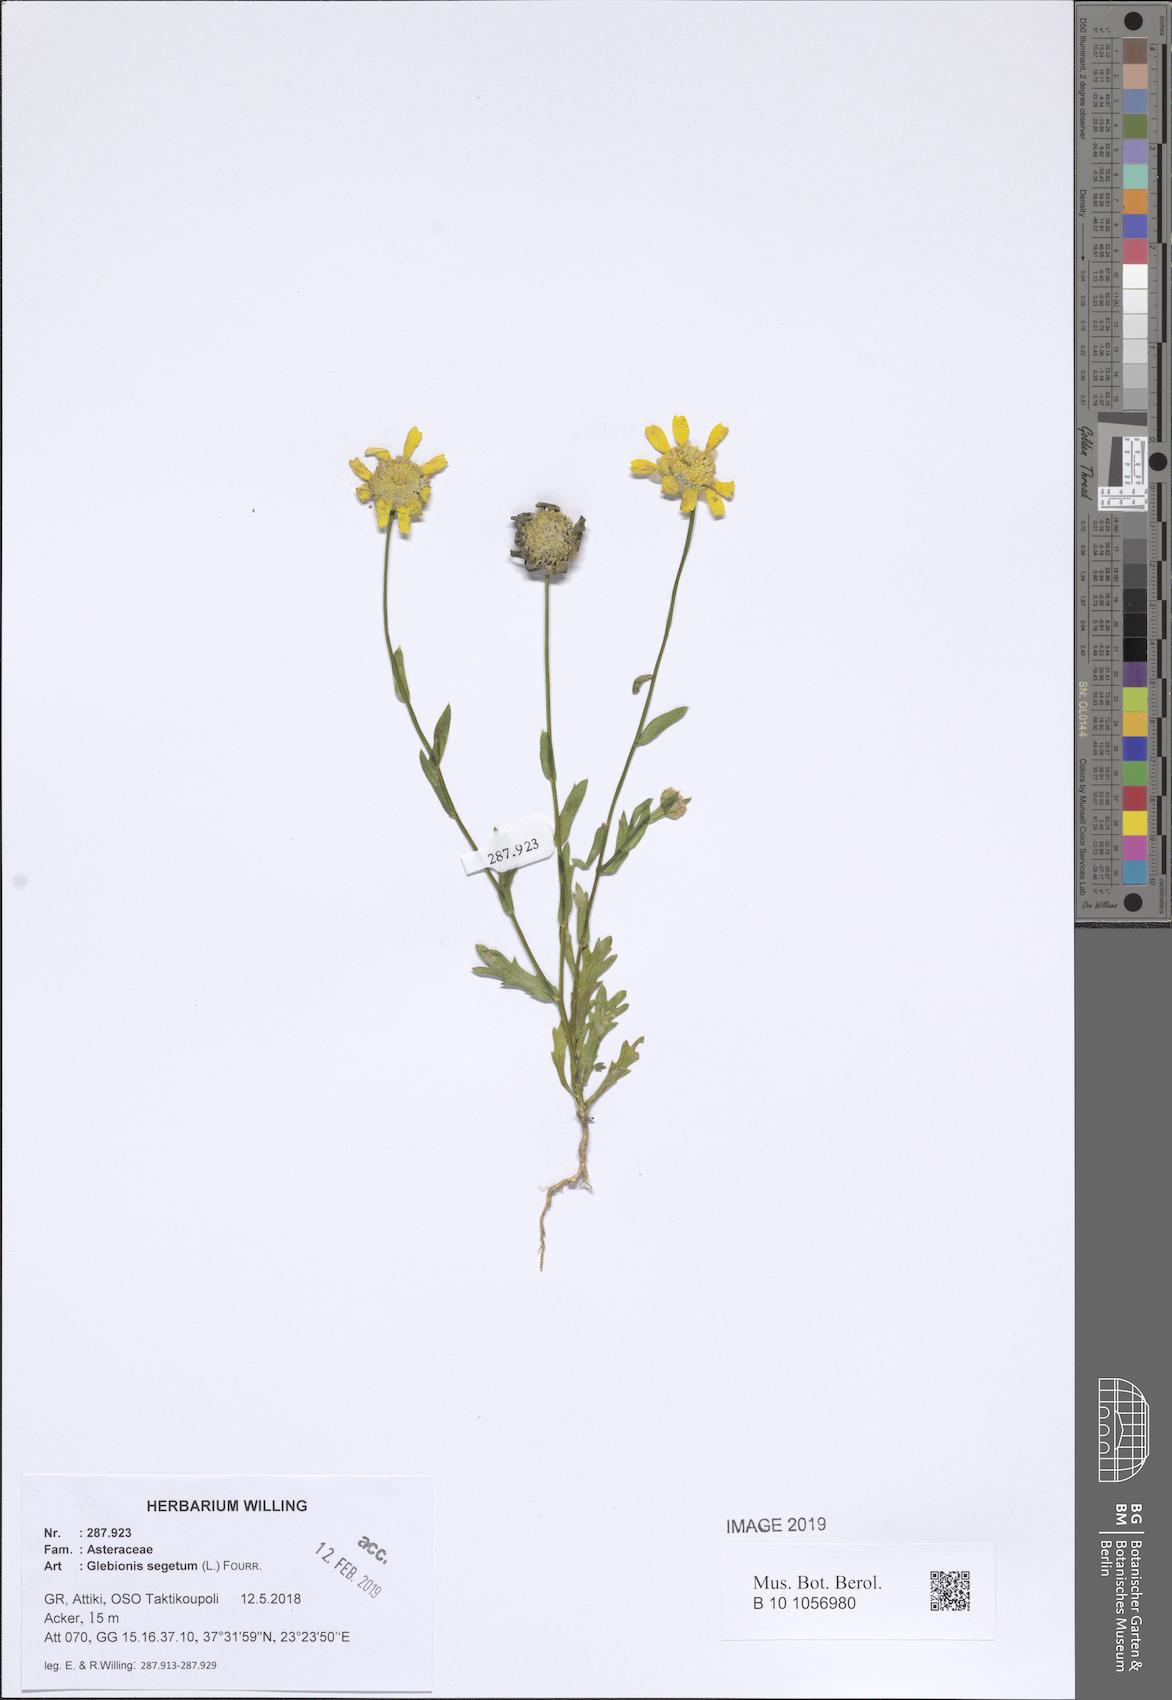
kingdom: Plantae
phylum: Tracheophyta
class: Magnoliopsida
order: Asterales
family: Asteraceae
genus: Glebionis
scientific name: Glebionis segetum
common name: Corndaisy
